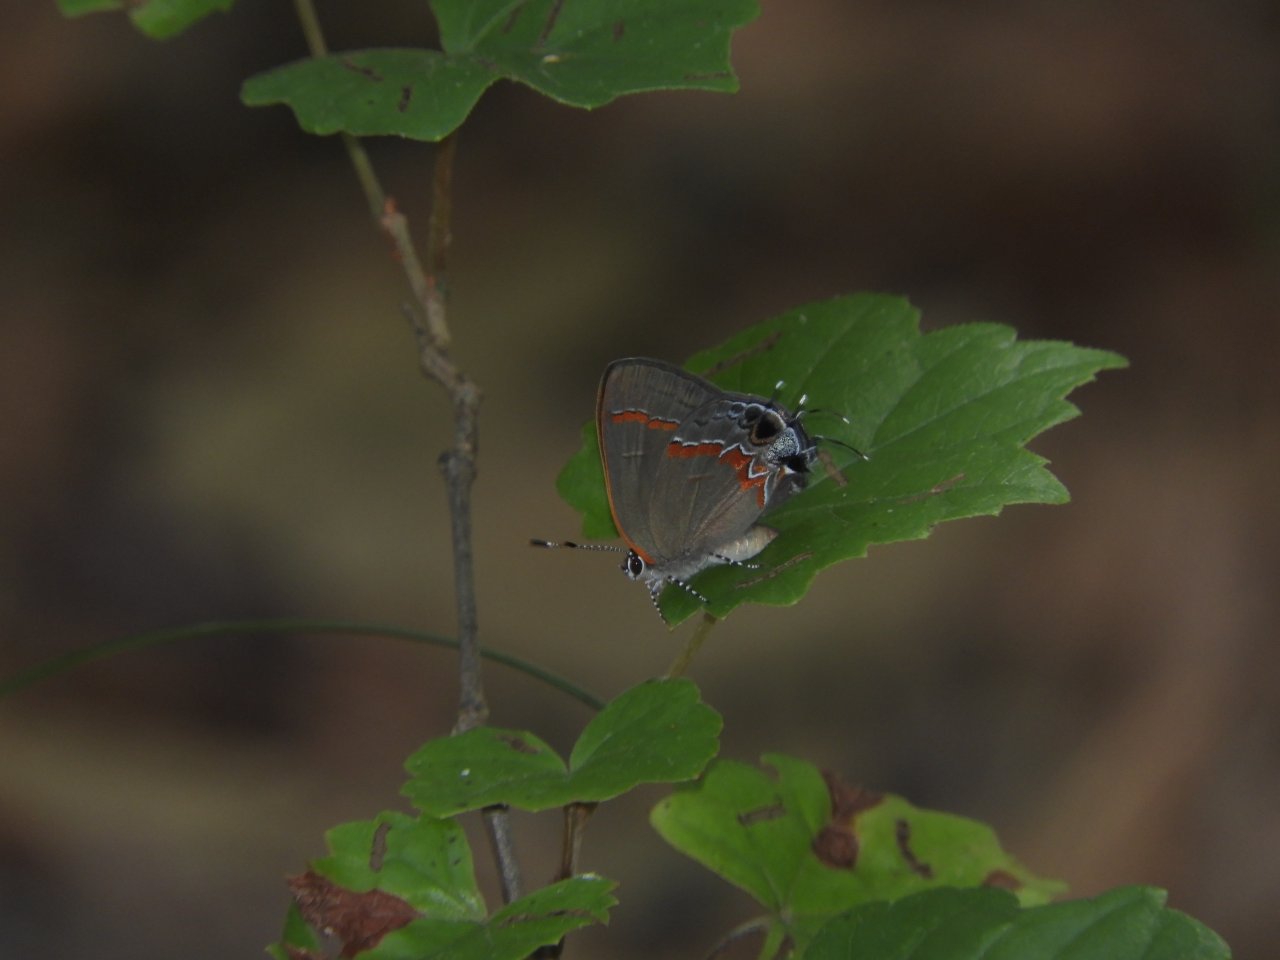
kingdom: Animalia
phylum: Arthropoda
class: Insecta
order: Lepidoptera
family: Lycaenidae
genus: Calycopis
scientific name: Calycopis cecrops
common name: Red-banded Hairstreak
